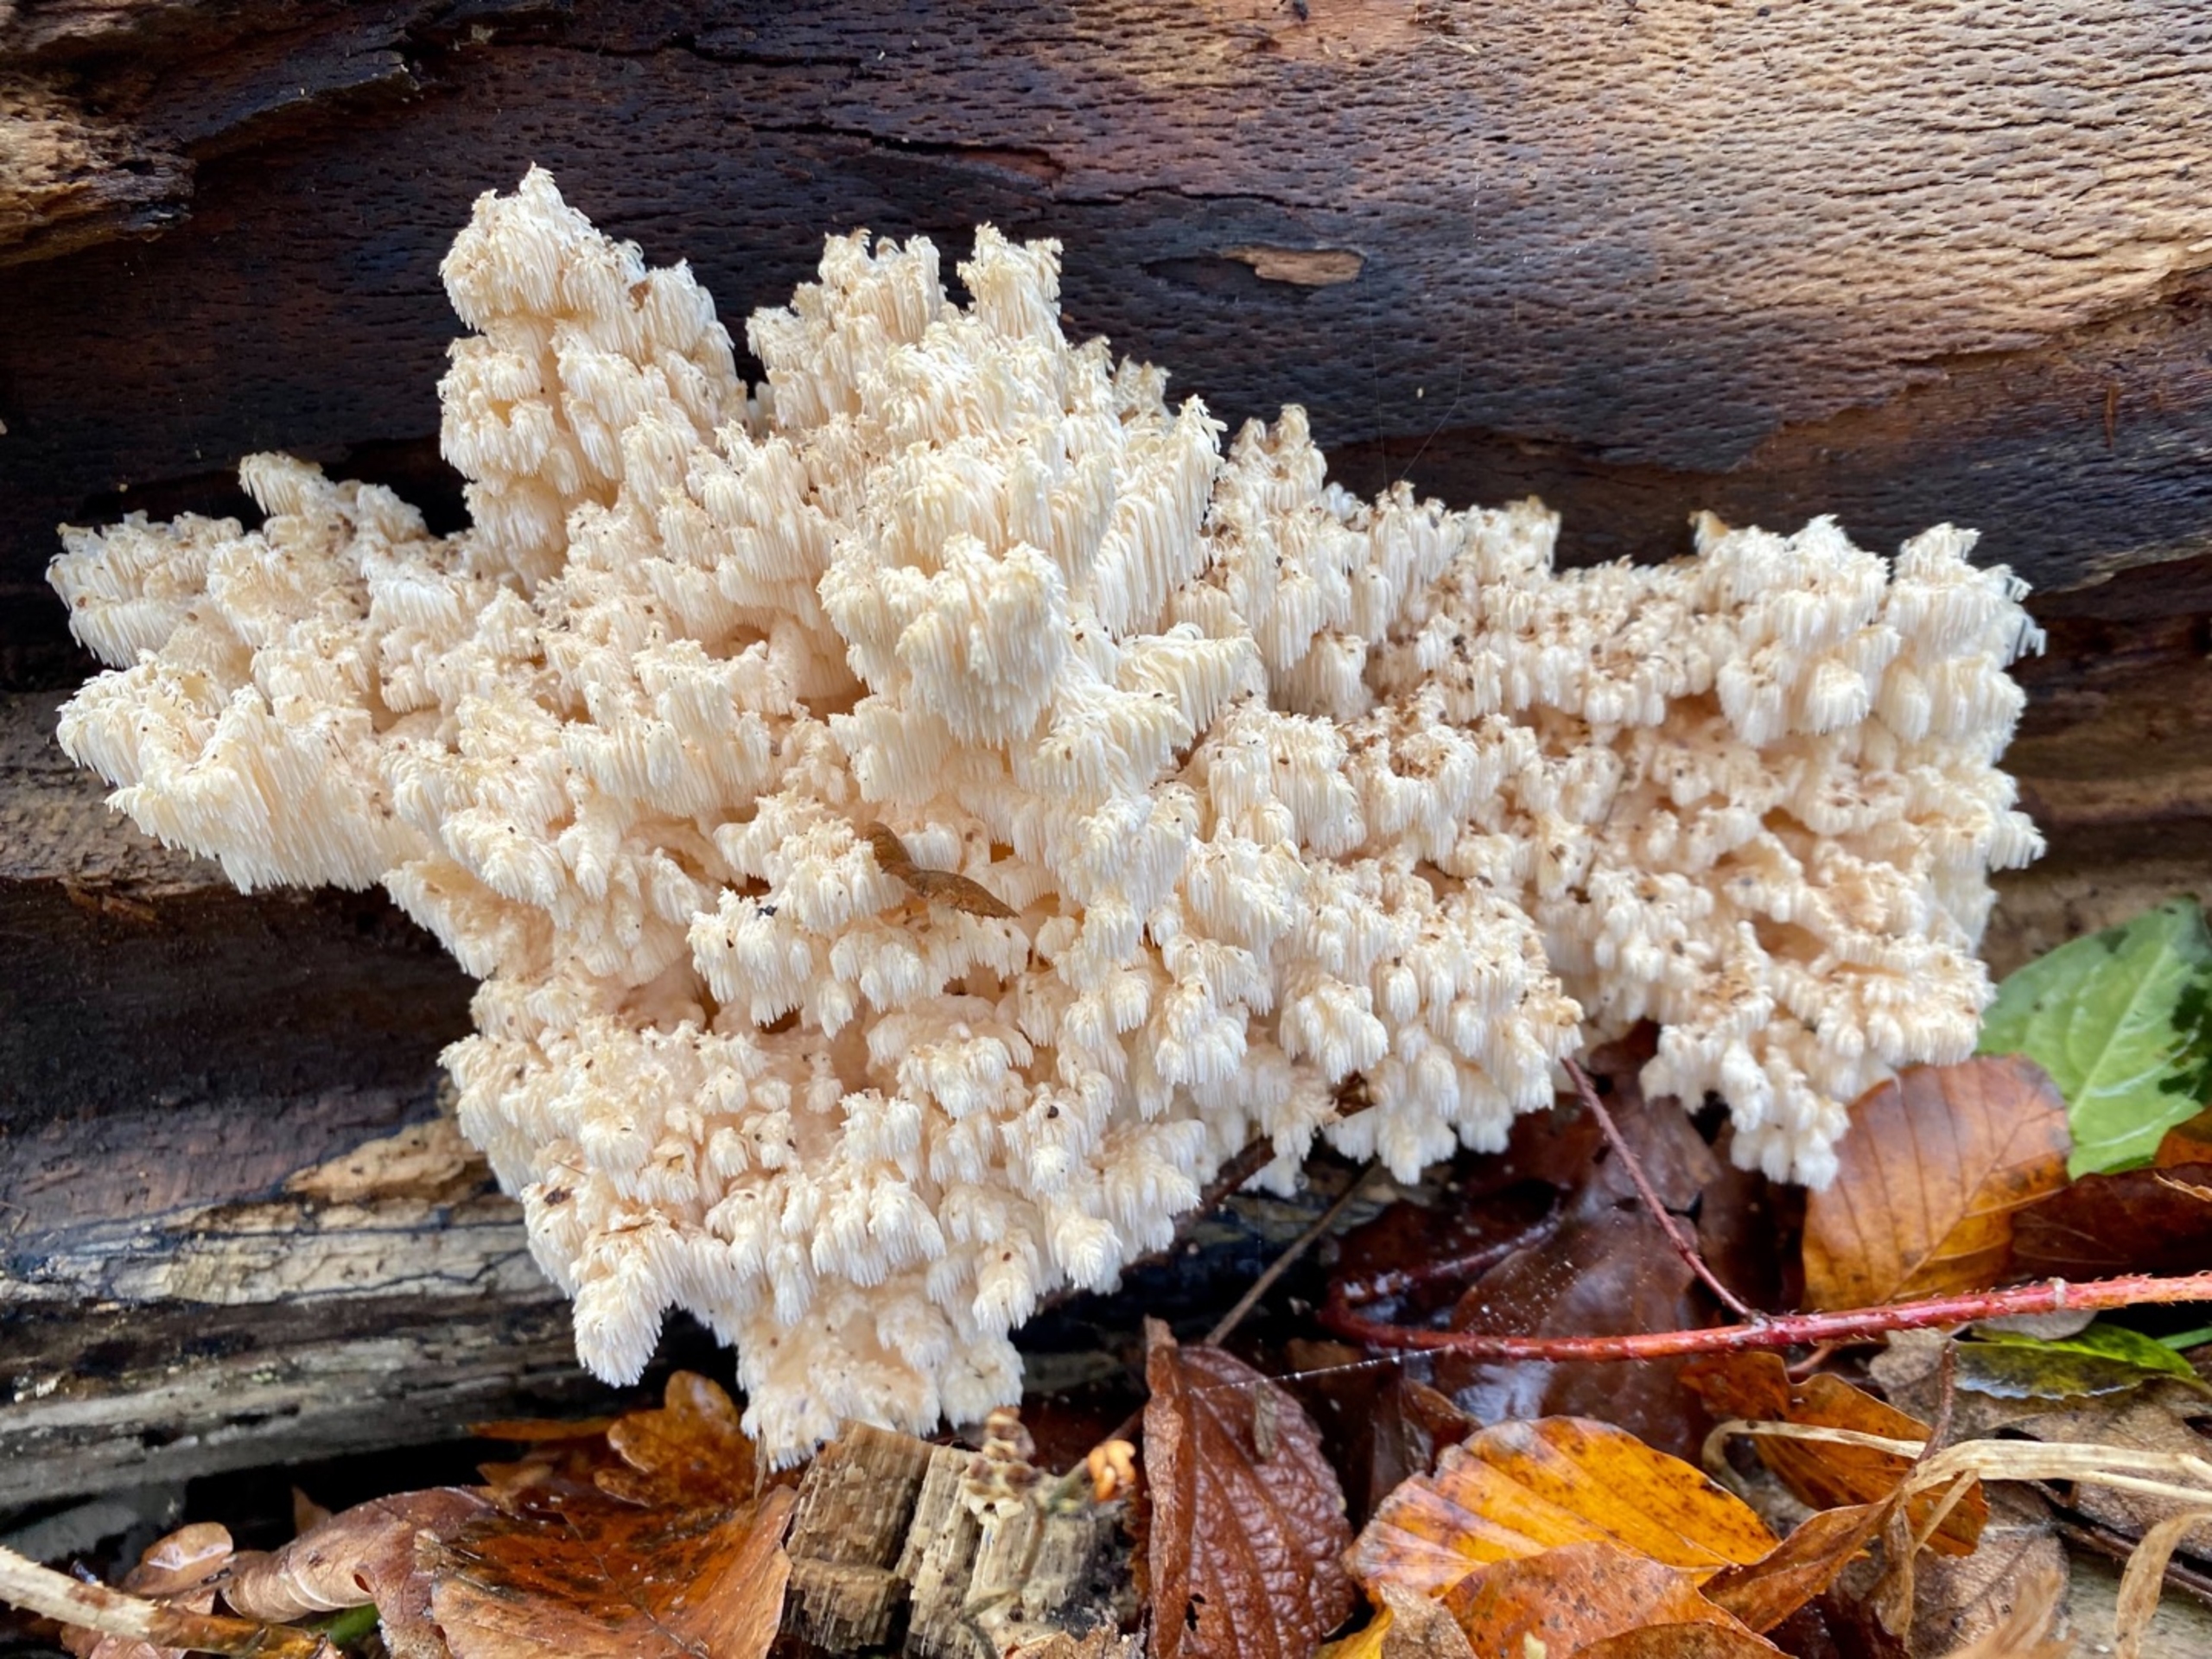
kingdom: Fungi
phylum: Basidiomycota
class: Agaricomycetes
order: Russulales
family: Hericiaceae
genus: Hericium
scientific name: Hericium coralloides
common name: Koralpigsvamp
